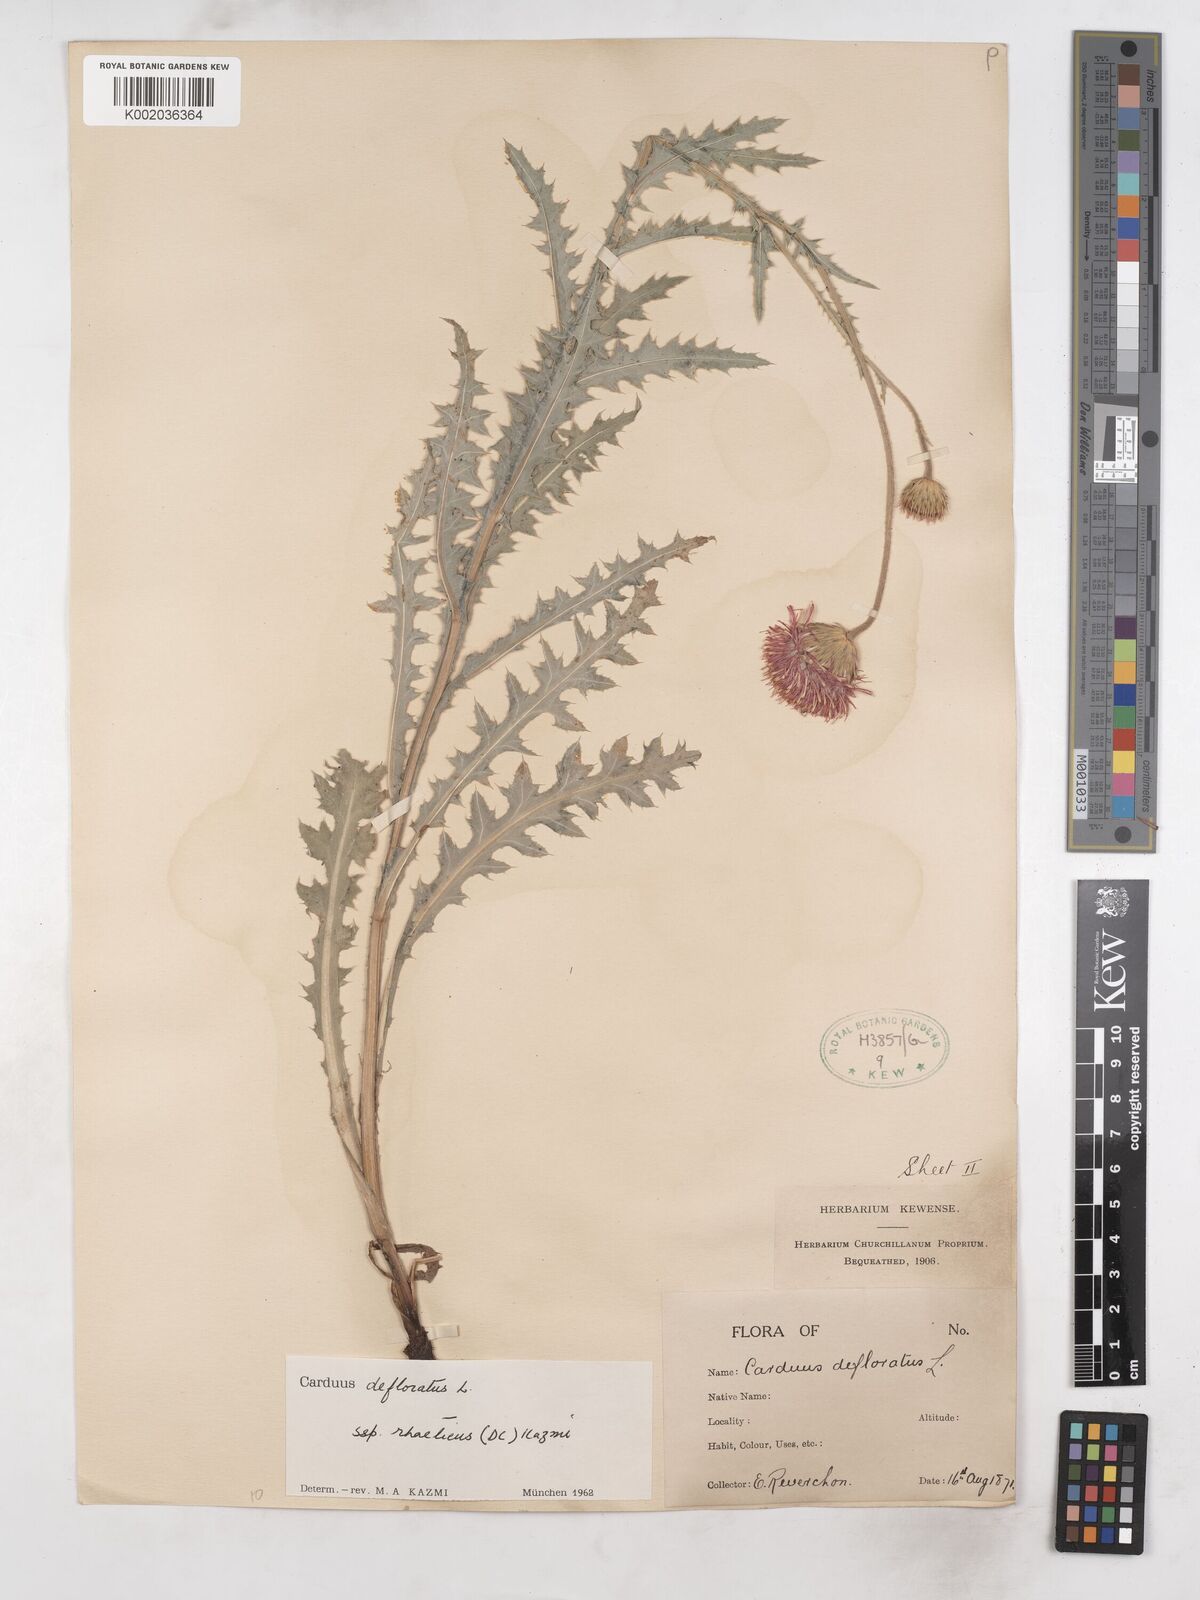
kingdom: Plantae
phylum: Tracheophyta
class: Magnoliopsida
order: Asterales
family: Asteraceae
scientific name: Asteraceae
